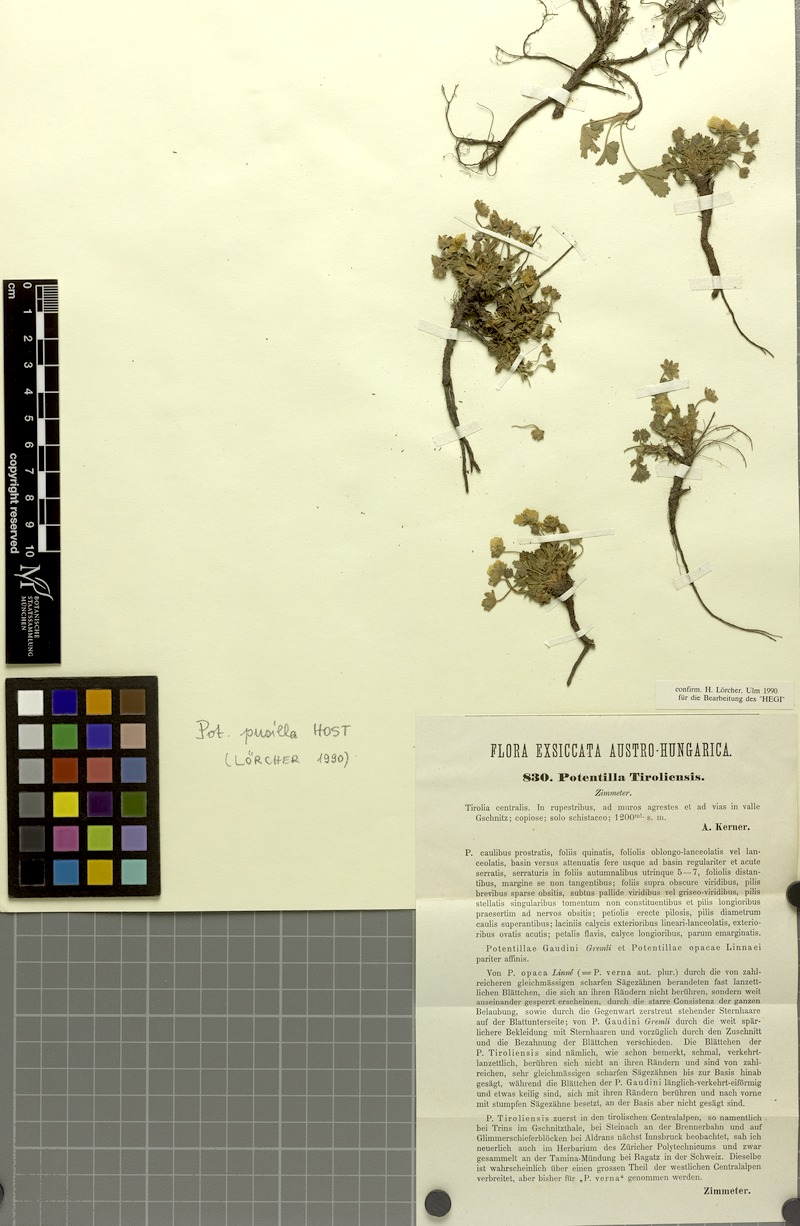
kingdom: Plantae
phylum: Tracheophyta
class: Magnoliopsida
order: Rosales
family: Rosaceae
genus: Potentilla
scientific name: Potentilla pusilla
